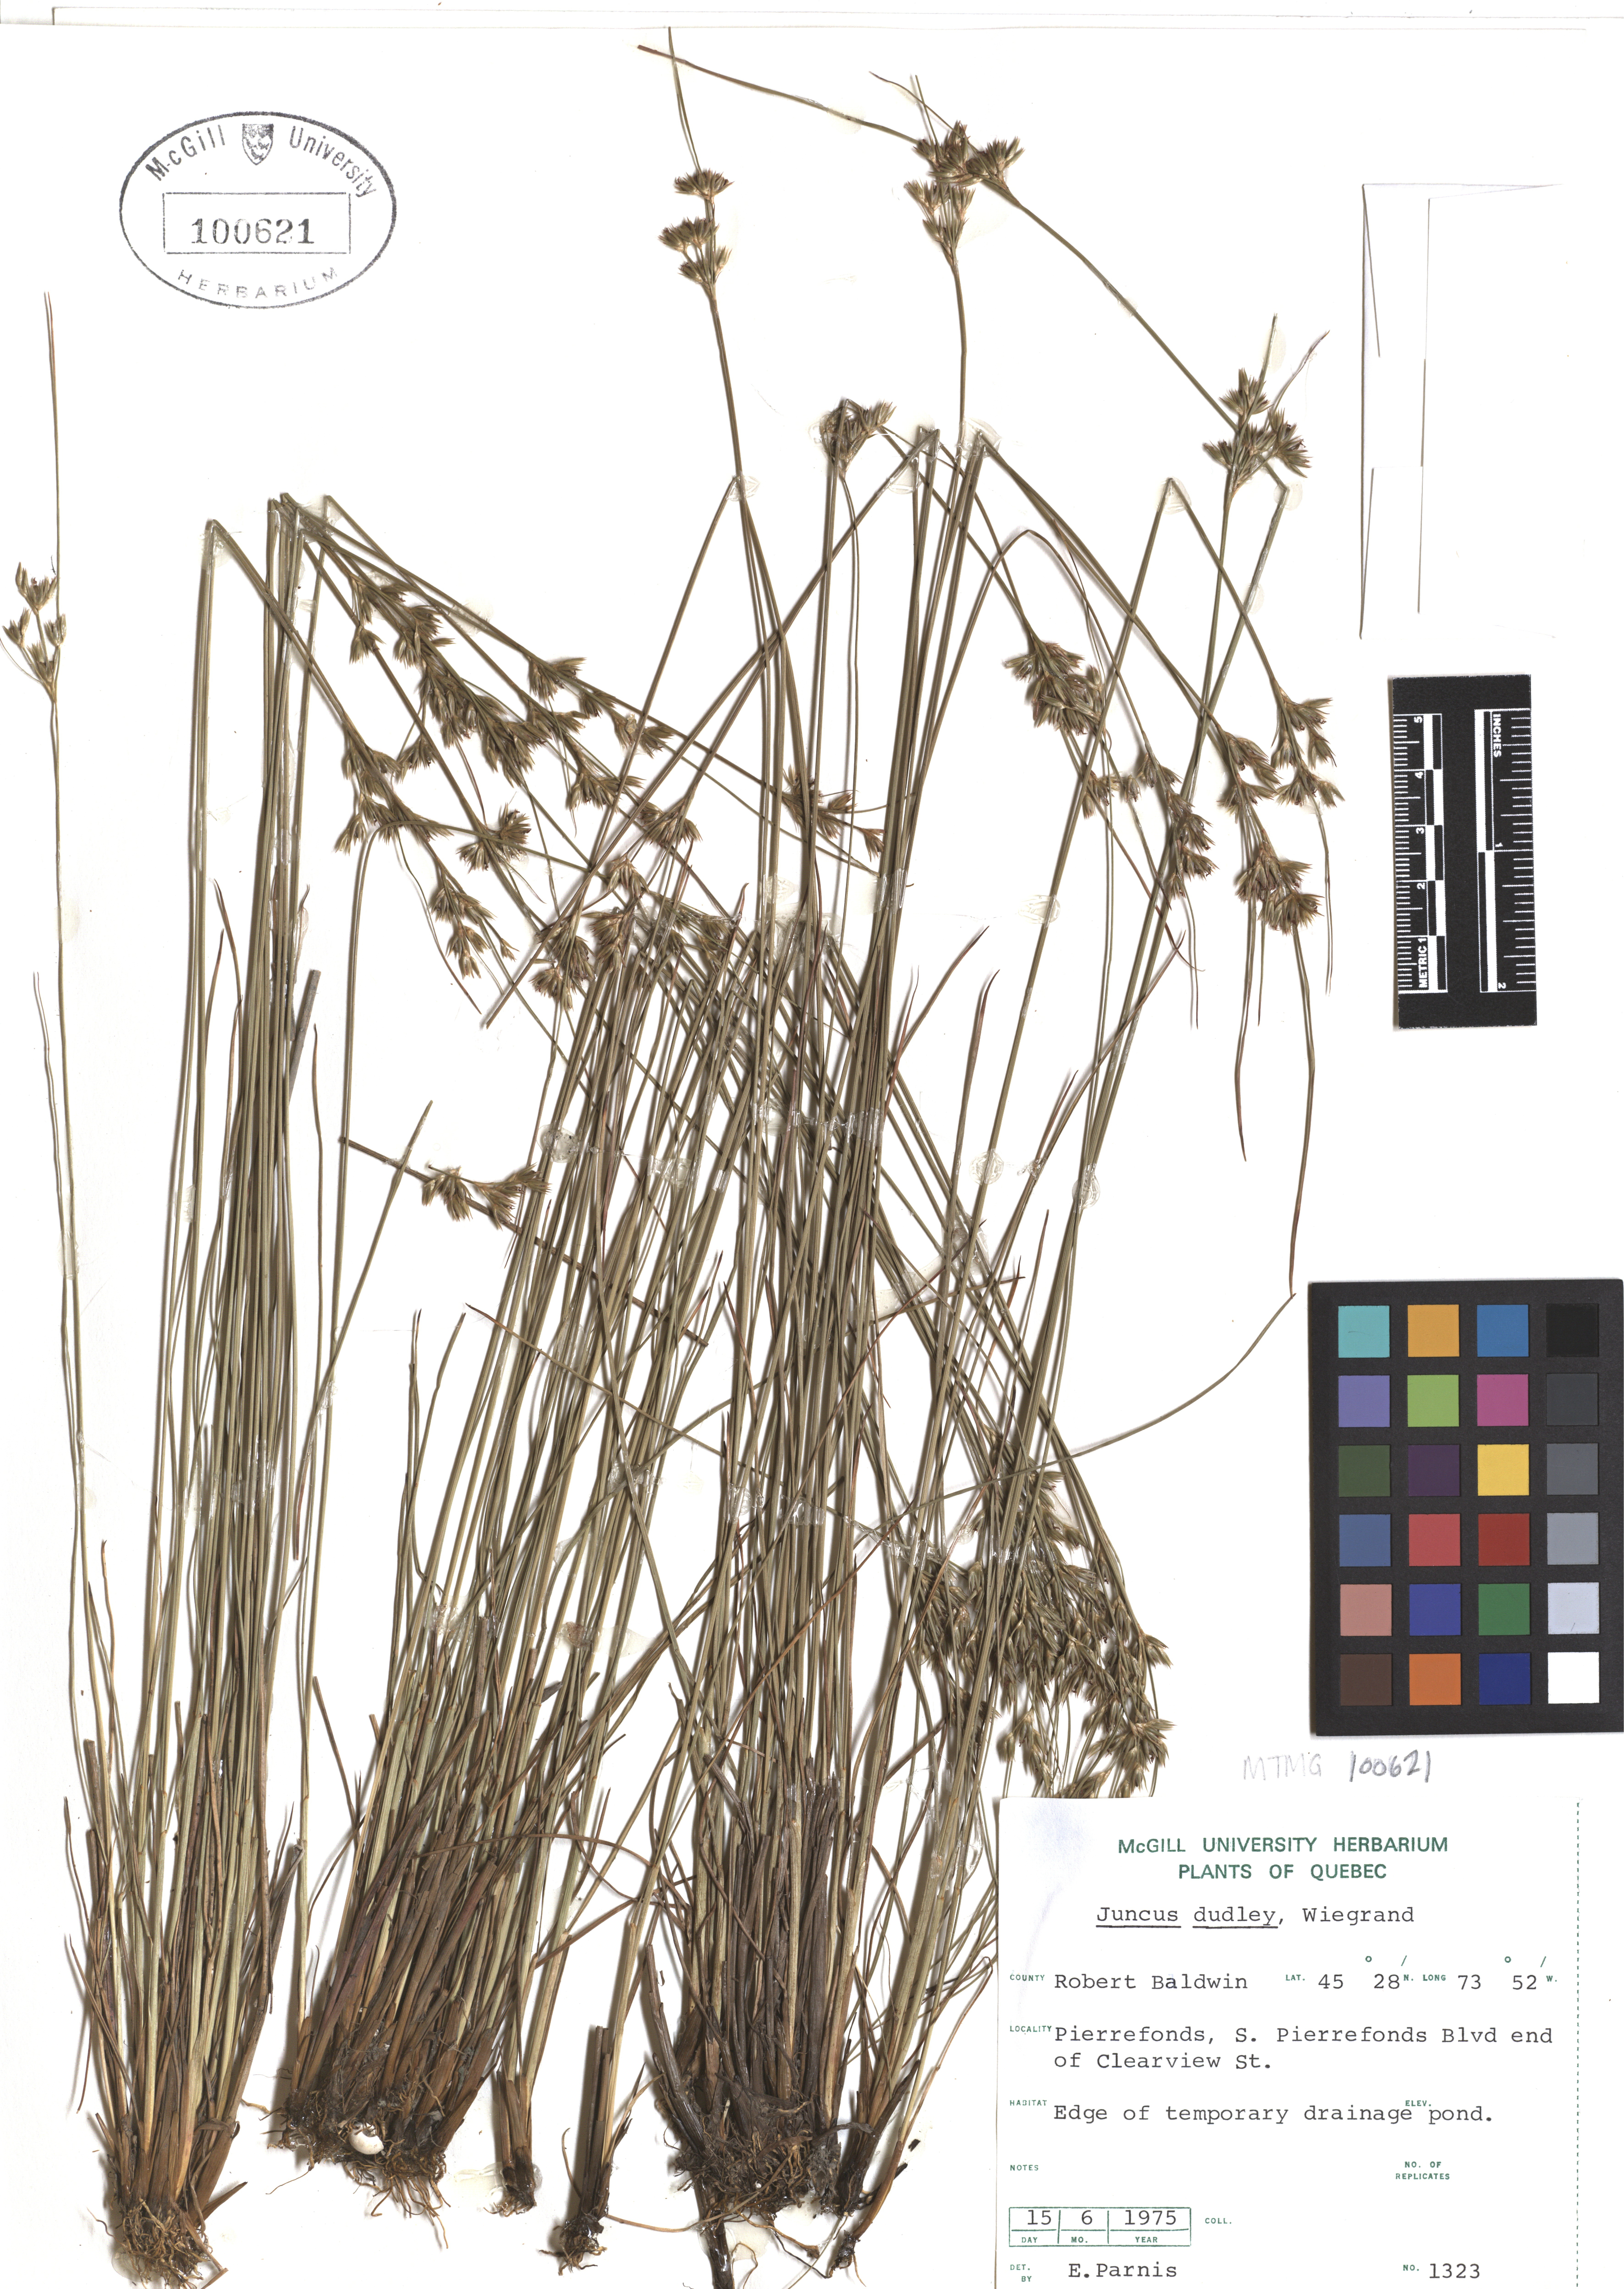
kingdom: Plantae
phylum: Tracheophyta
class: Liliopsida
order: Poales
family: Juncaceae
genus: Juncus
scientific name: Juncus dudleyi
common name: Dudley's rush
